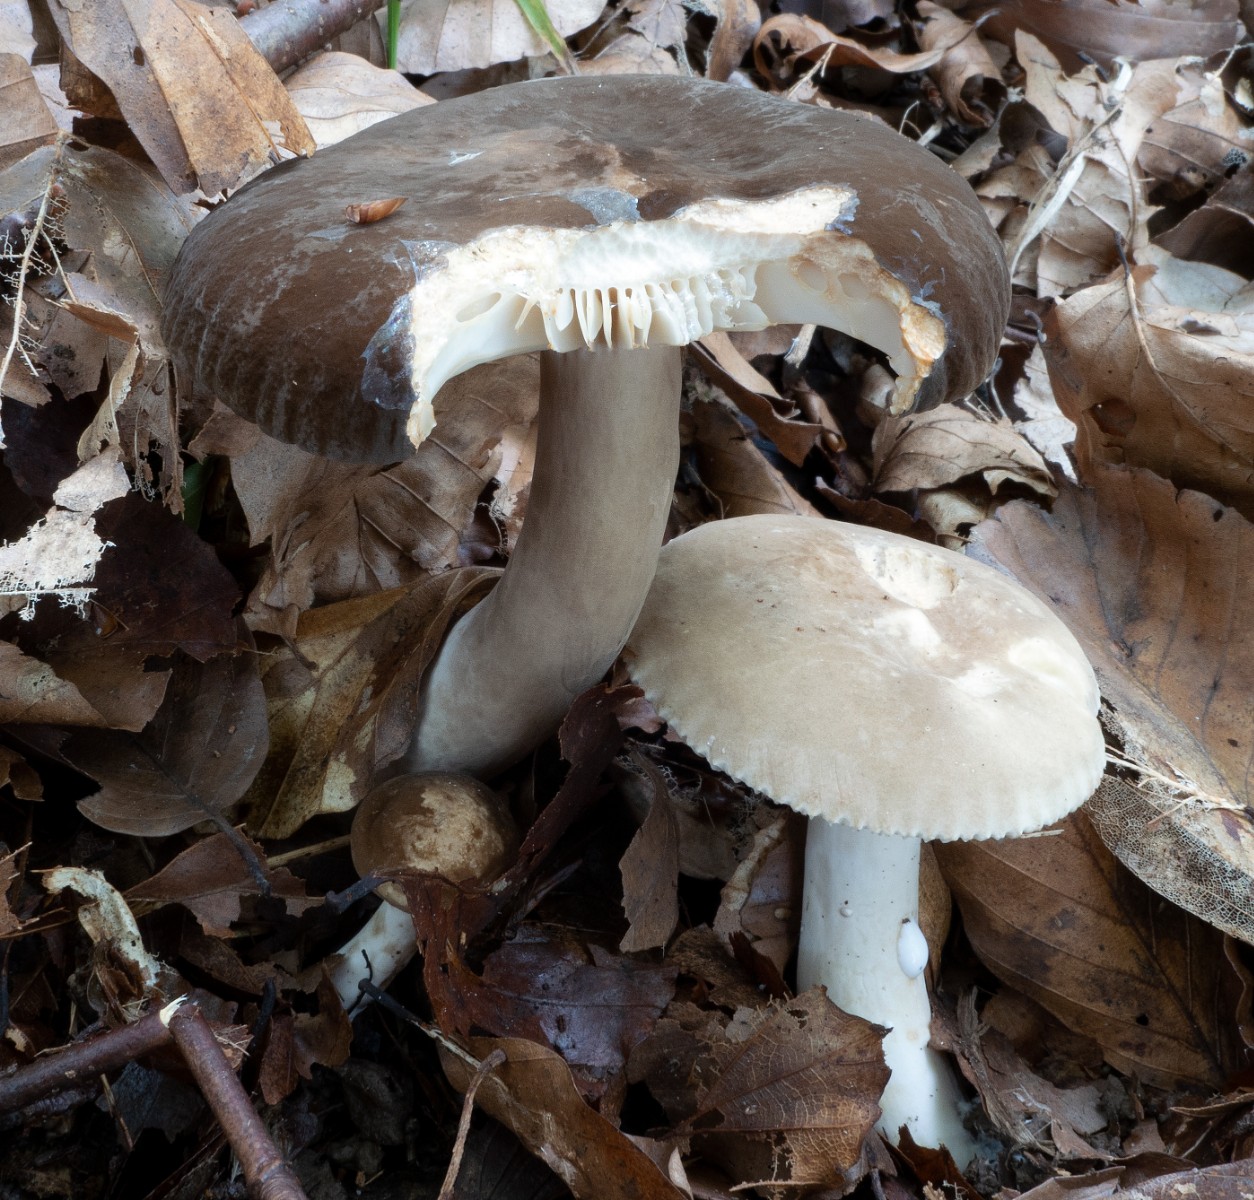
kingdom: Fungi
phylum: Basidiomycota
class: Agaricomycetes
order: Russulales
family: Russulaceae
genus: Lactarius
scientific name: Lactarius romagnesii
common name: fjernbladet mælkehat
